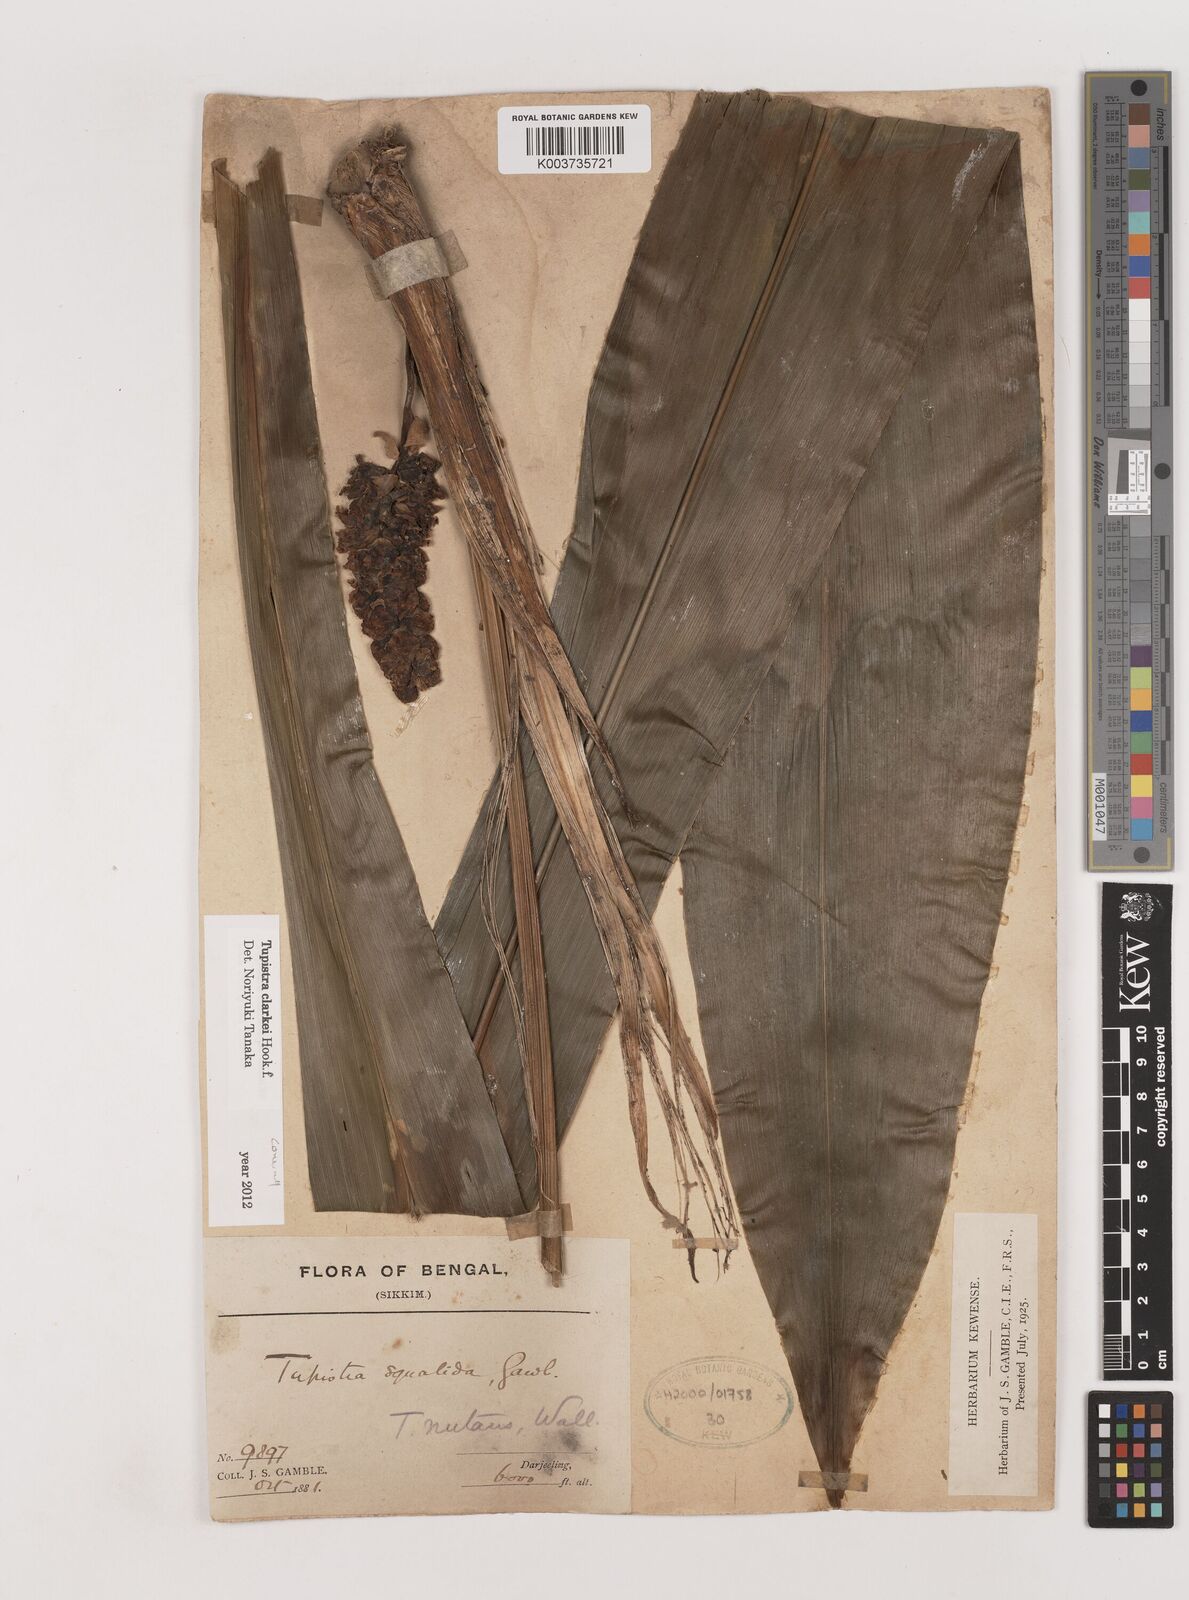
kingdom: Plantae
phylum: Tracheophyta
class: Liliopsida
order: Asparagales
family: Asparagaceae
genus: Tupistra
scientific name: Tupistra clarkei
